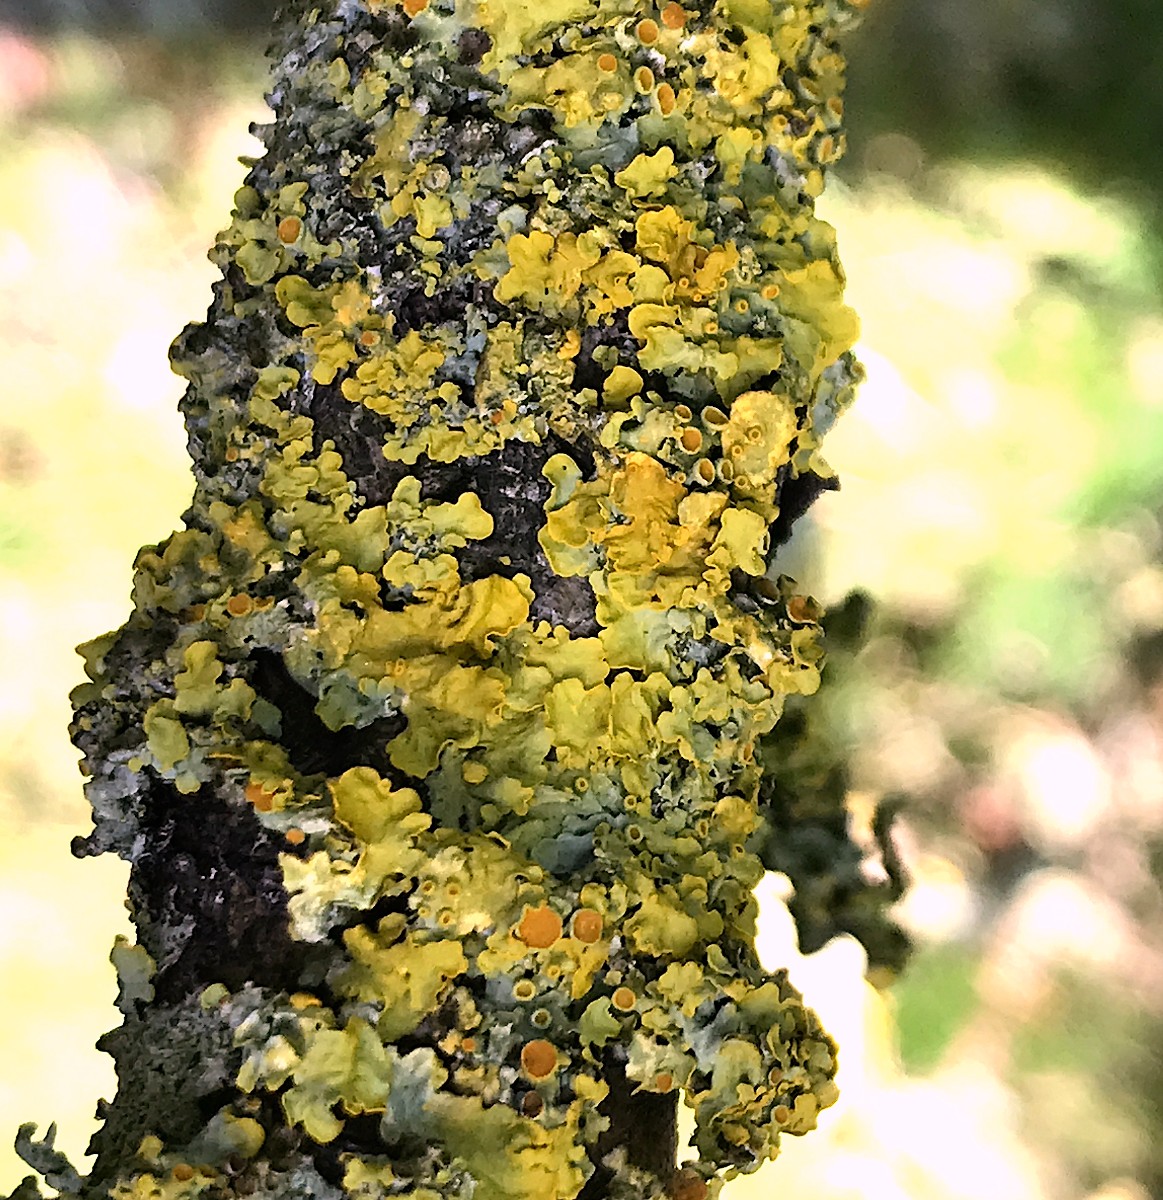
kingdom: Fungi
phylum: Ascomycota
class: Lecanoromycetes
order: Teloschistales
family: Teloschistaceae
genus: Xanthoria
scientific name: Xanthoria parietina
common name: almindelig væggelav
